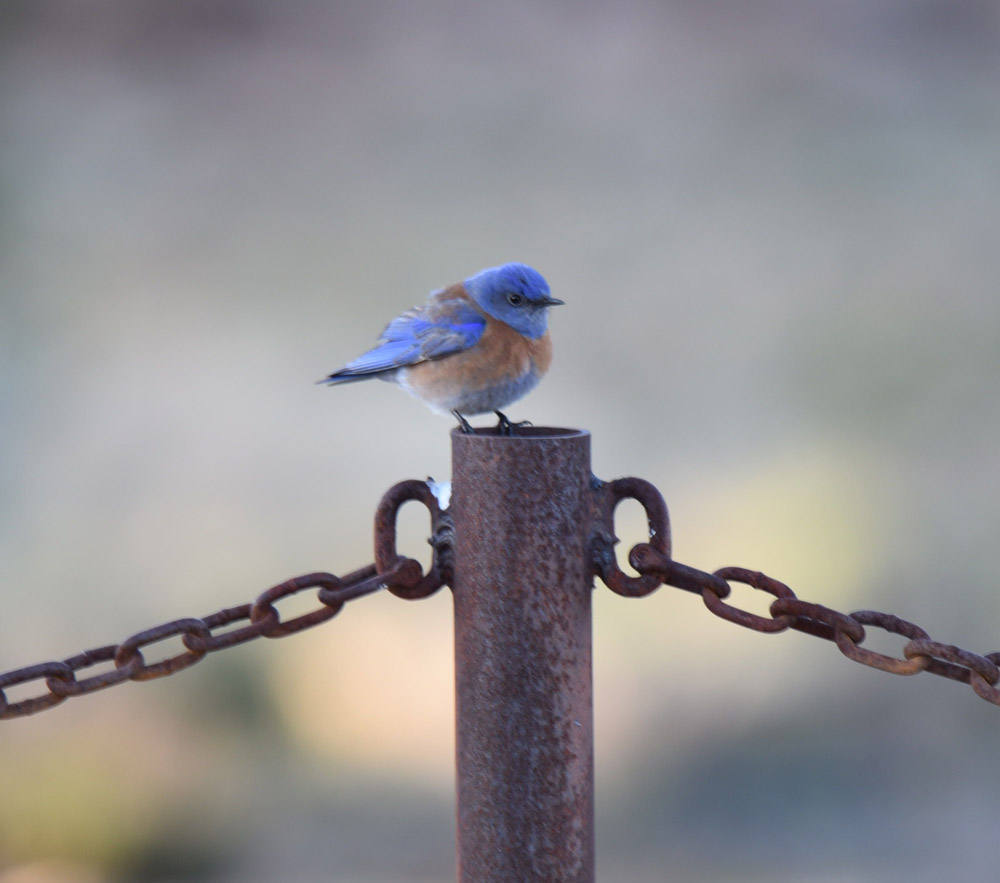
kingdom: Animalia
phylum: Chordata
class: Aves
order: Passeriformes
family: Turdidae
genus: Sialia
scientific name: Sialia mexicana
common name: Western bluebird
